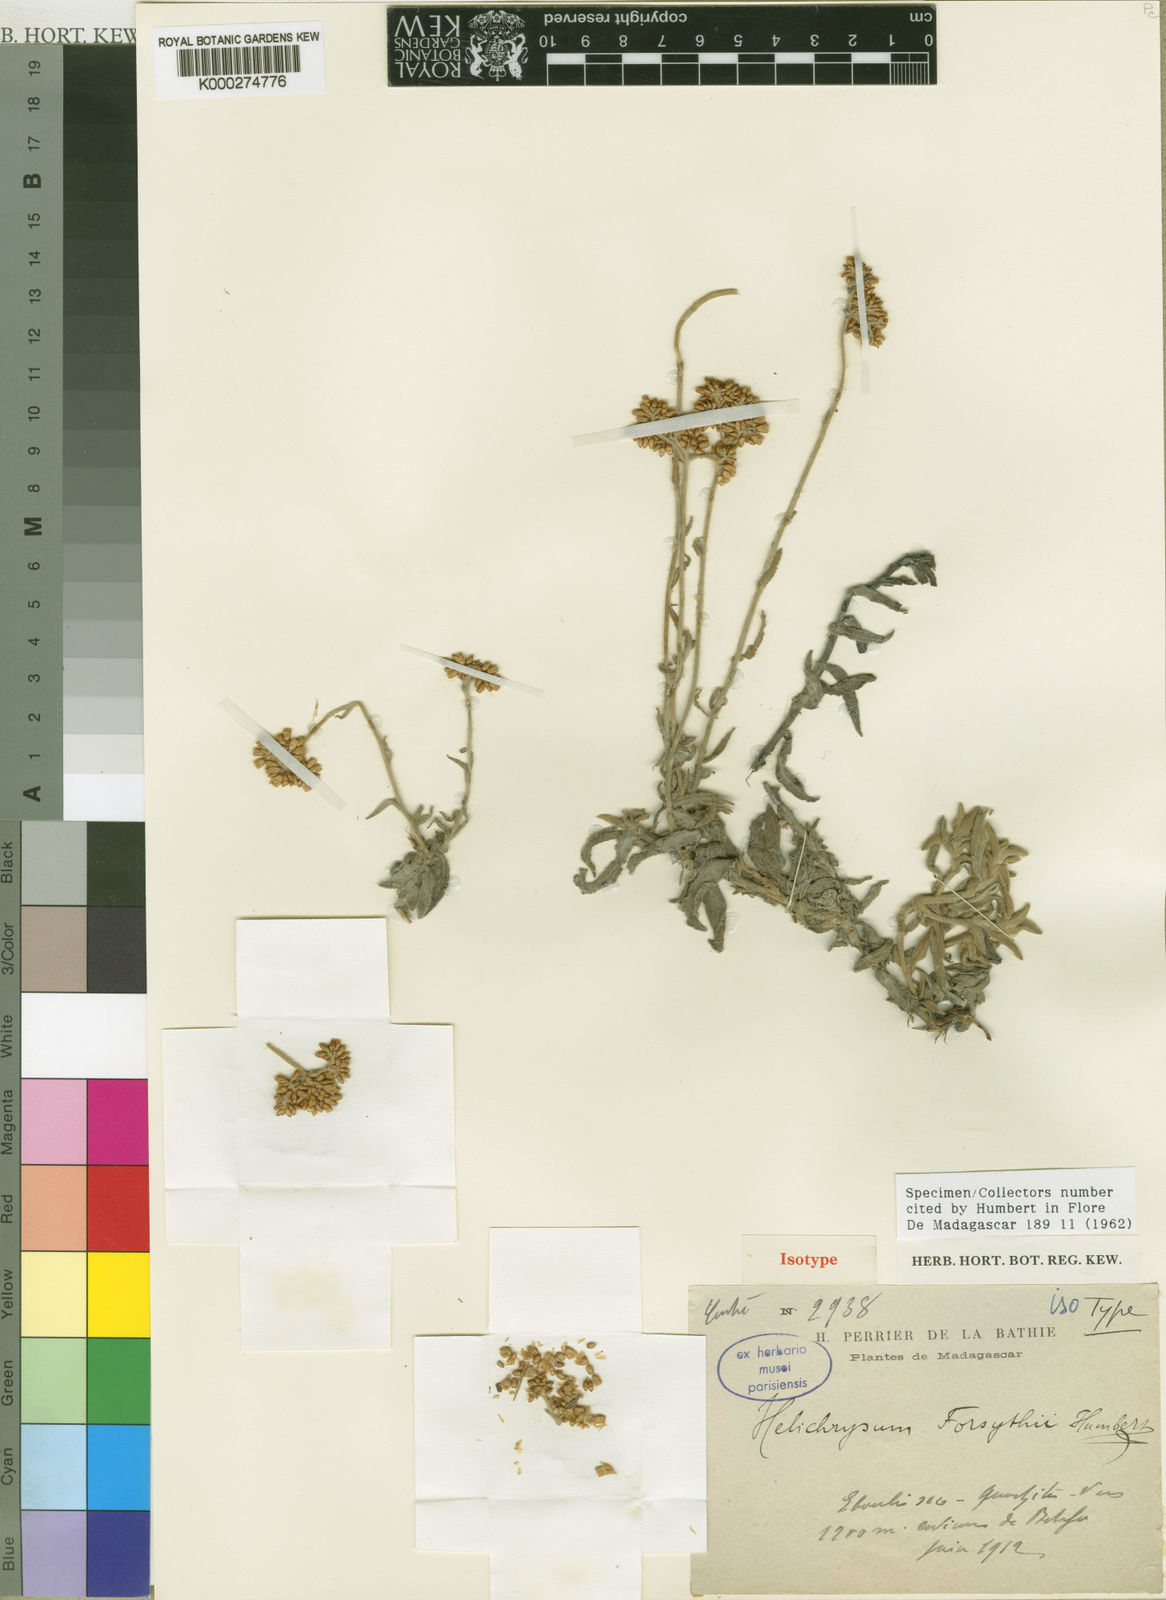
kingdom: Plantae
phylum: Tracheophyta
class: Magnoliopsida
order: Asterales
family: Asteraceae
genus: Helichrysum
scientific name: Helichrysum forsythii
